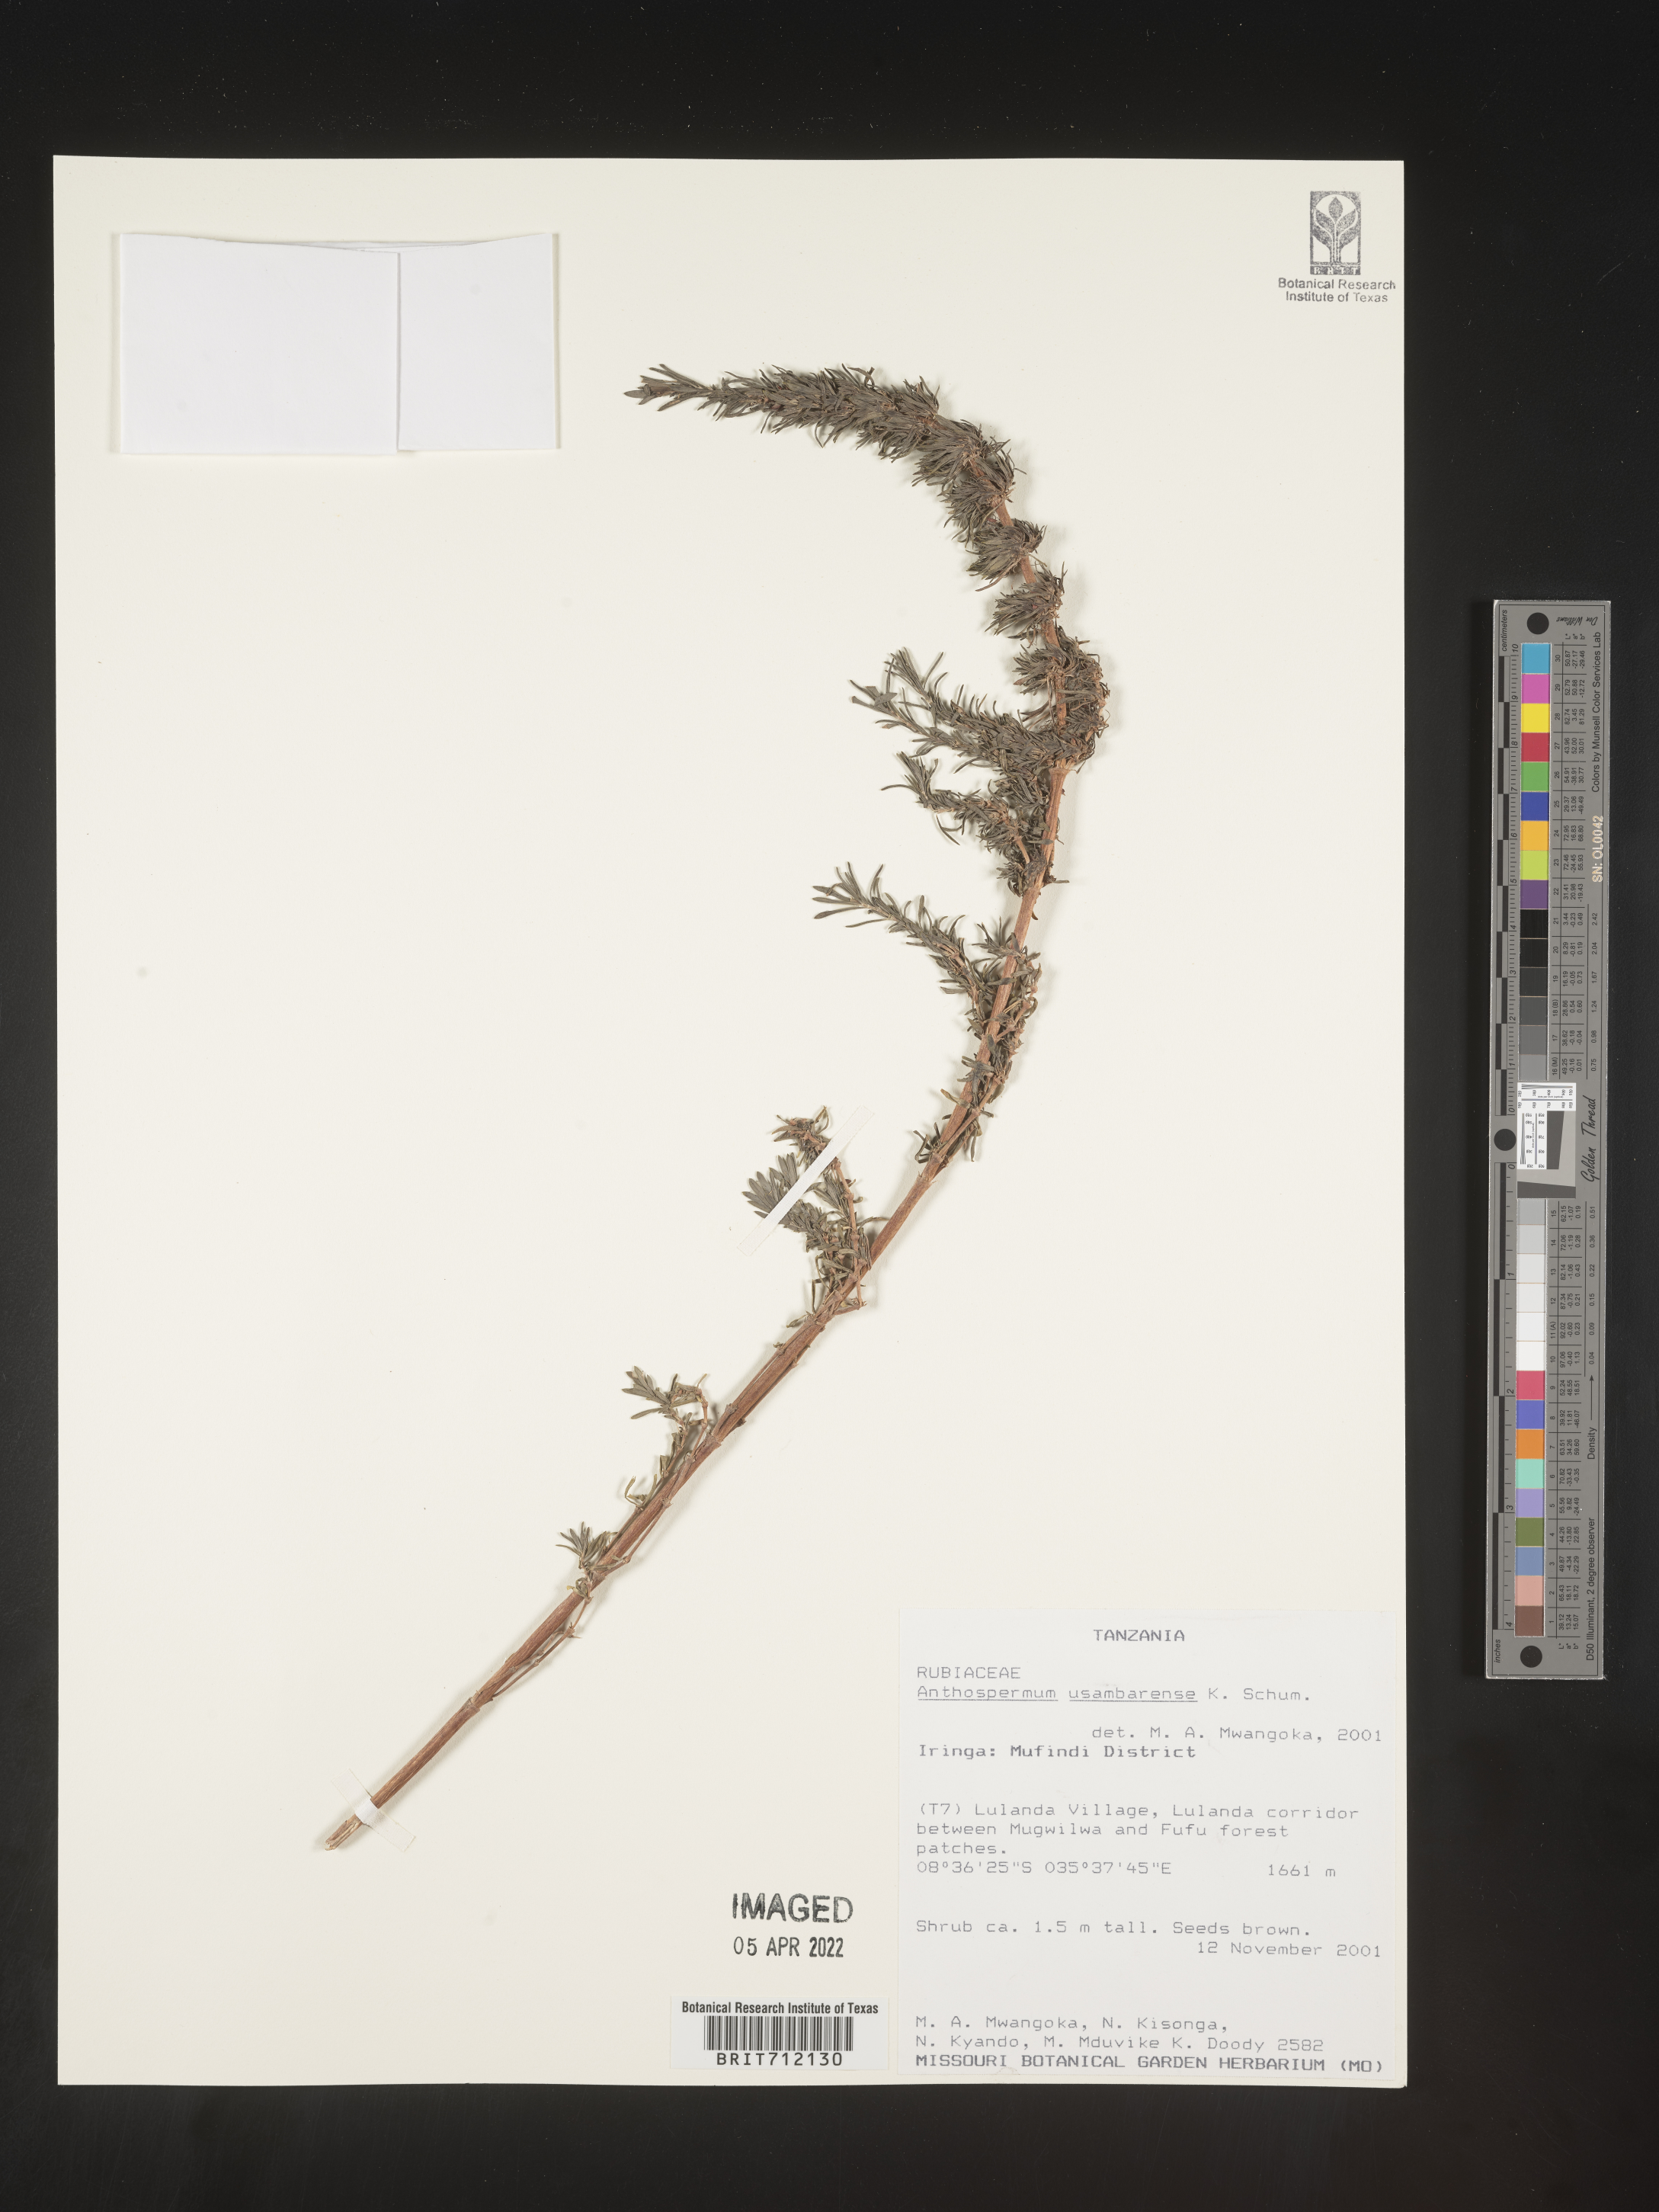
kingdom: Plantae
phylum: Tracheophyta
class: Magnoliopsida
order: Gentianales
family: Rubiaceae
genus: Anthospermum
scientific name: Anthospermum
